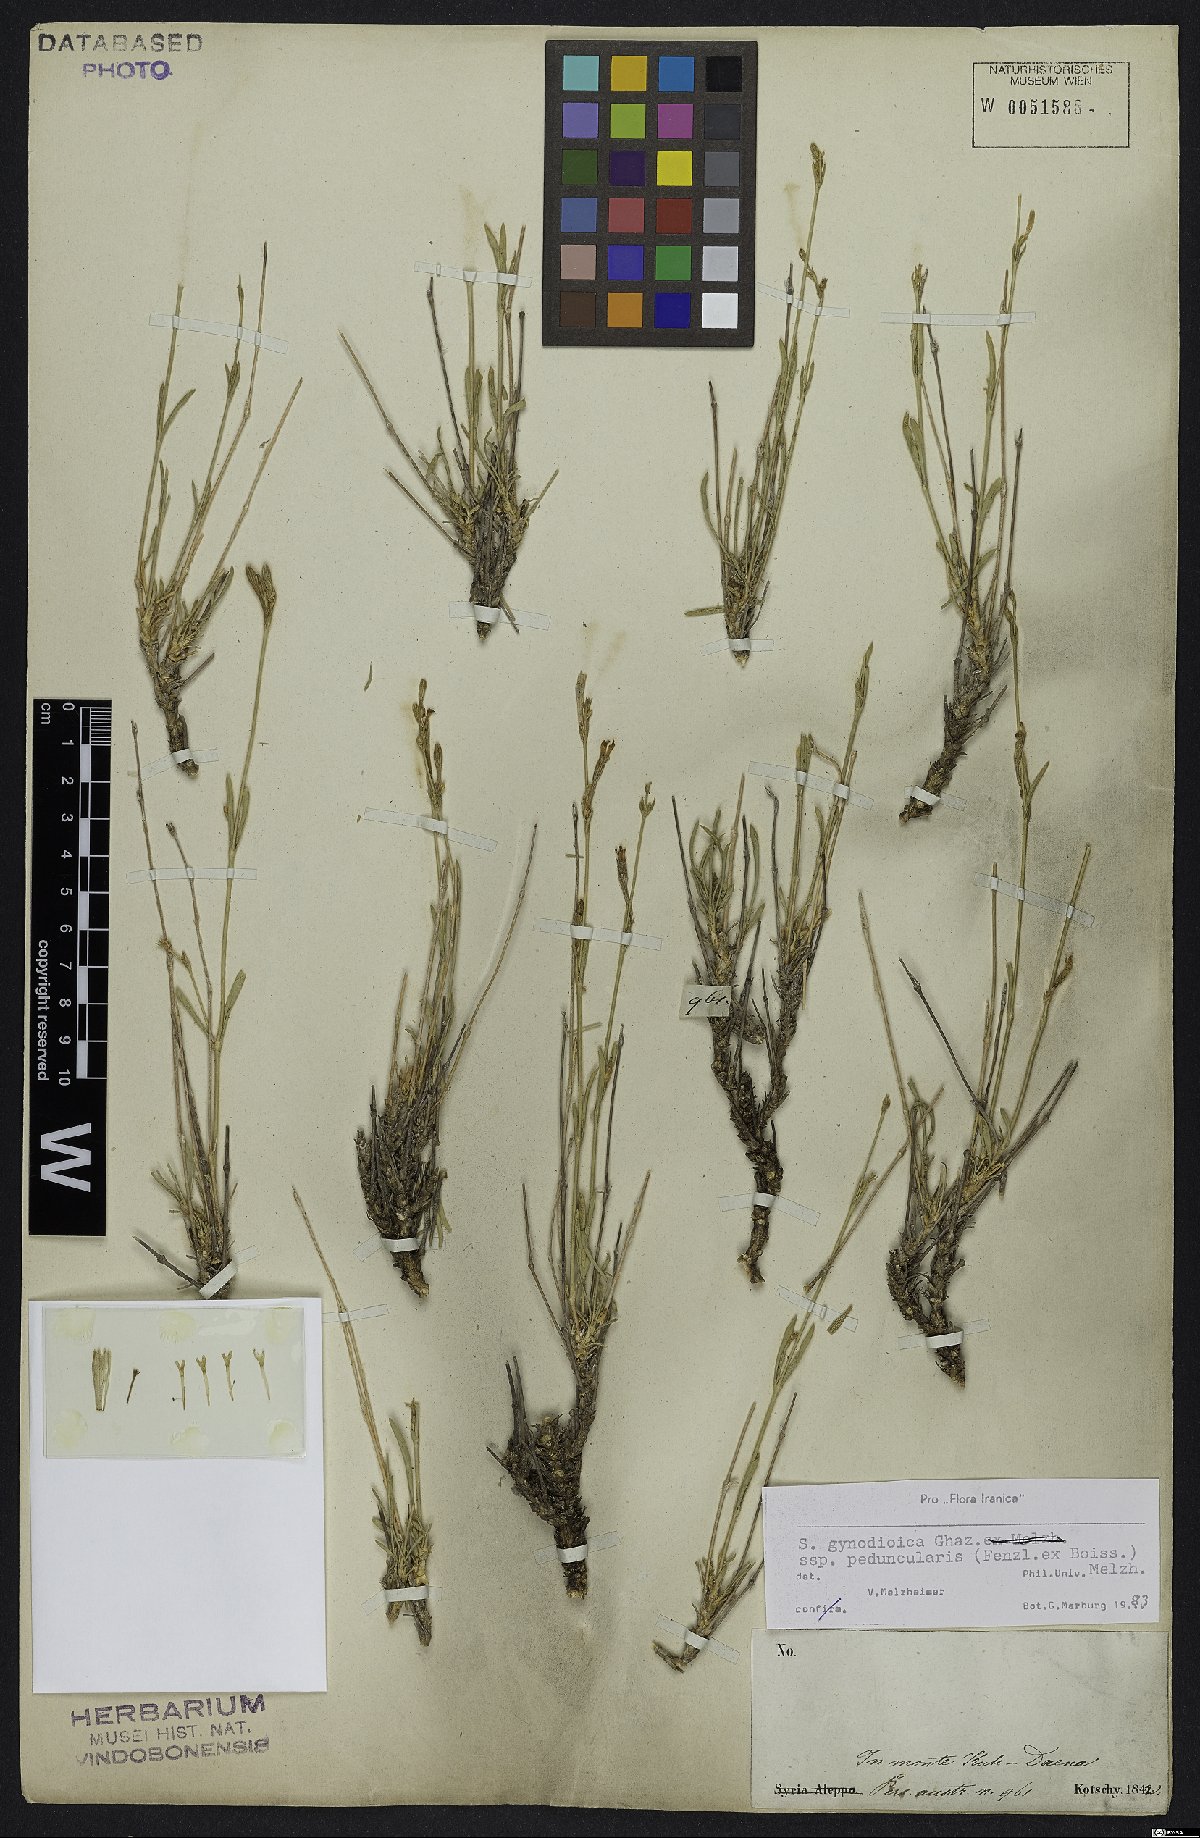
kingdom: Plantae
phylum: Tracheophyta
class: Magnoliopsida
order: Caryophyllales
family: Caryophyllaceae
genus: Silene
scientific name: Silene behboudiana
